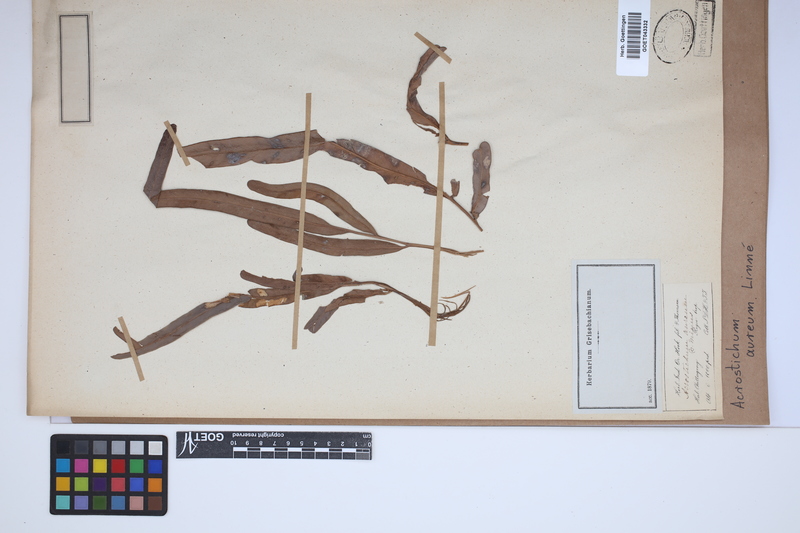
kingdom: Plantae
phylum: Tracheophyta
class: Polypodiopsida
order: Polypodiales
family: Pteridaceae
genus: Acrostichum
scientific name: Acrostichum aureum
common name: Leather fern
